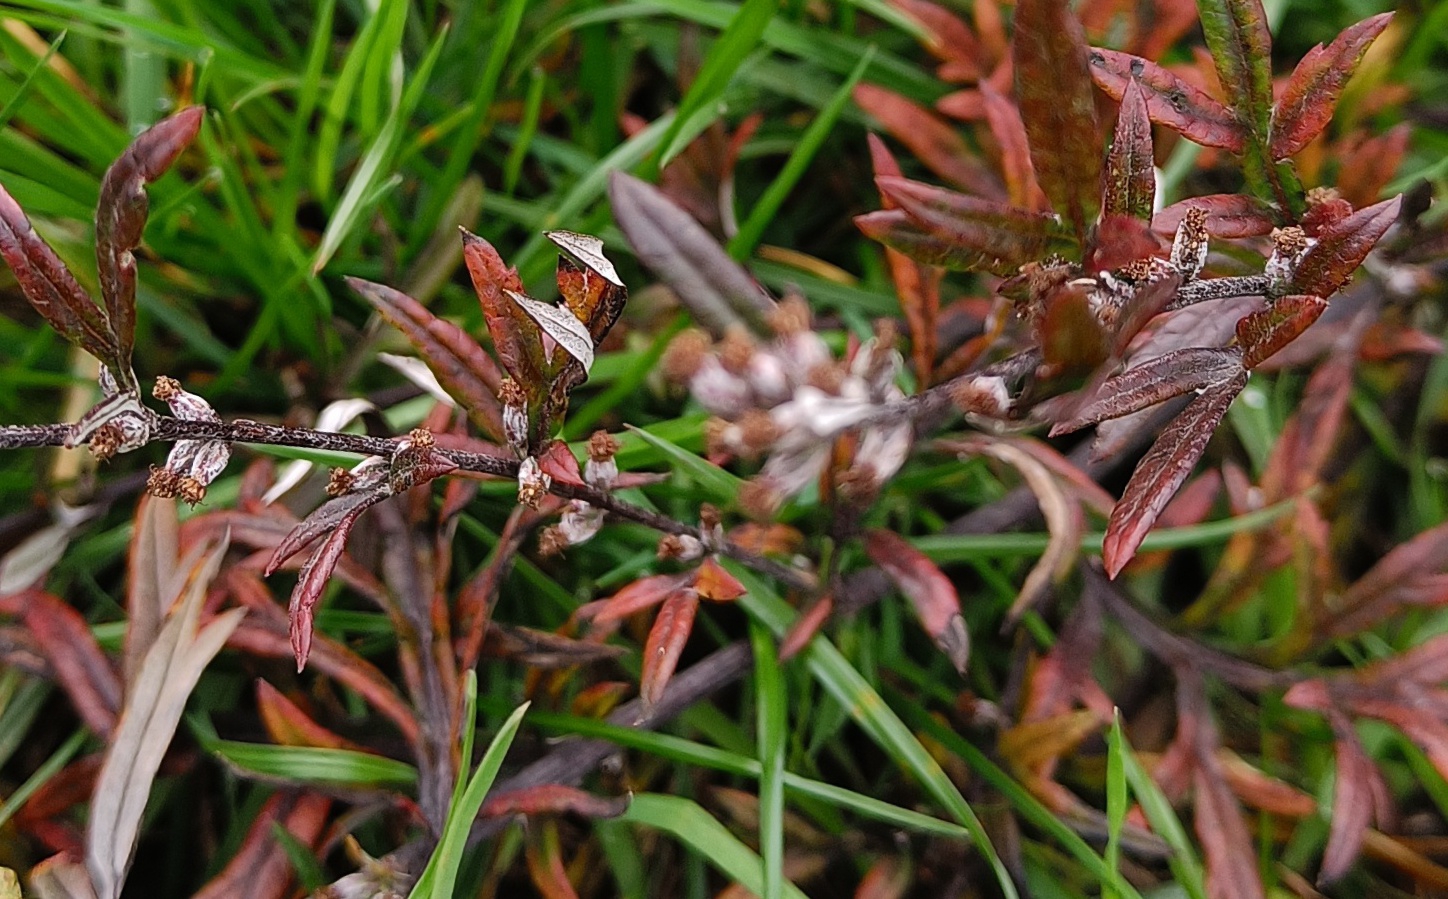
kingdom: Plantae
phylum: Tracheophyta
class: Magnoliopsida
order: Asterales
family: Asteraceae
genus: Artemisia
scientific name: Artemisia vulgaris
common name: Grå-bynke
